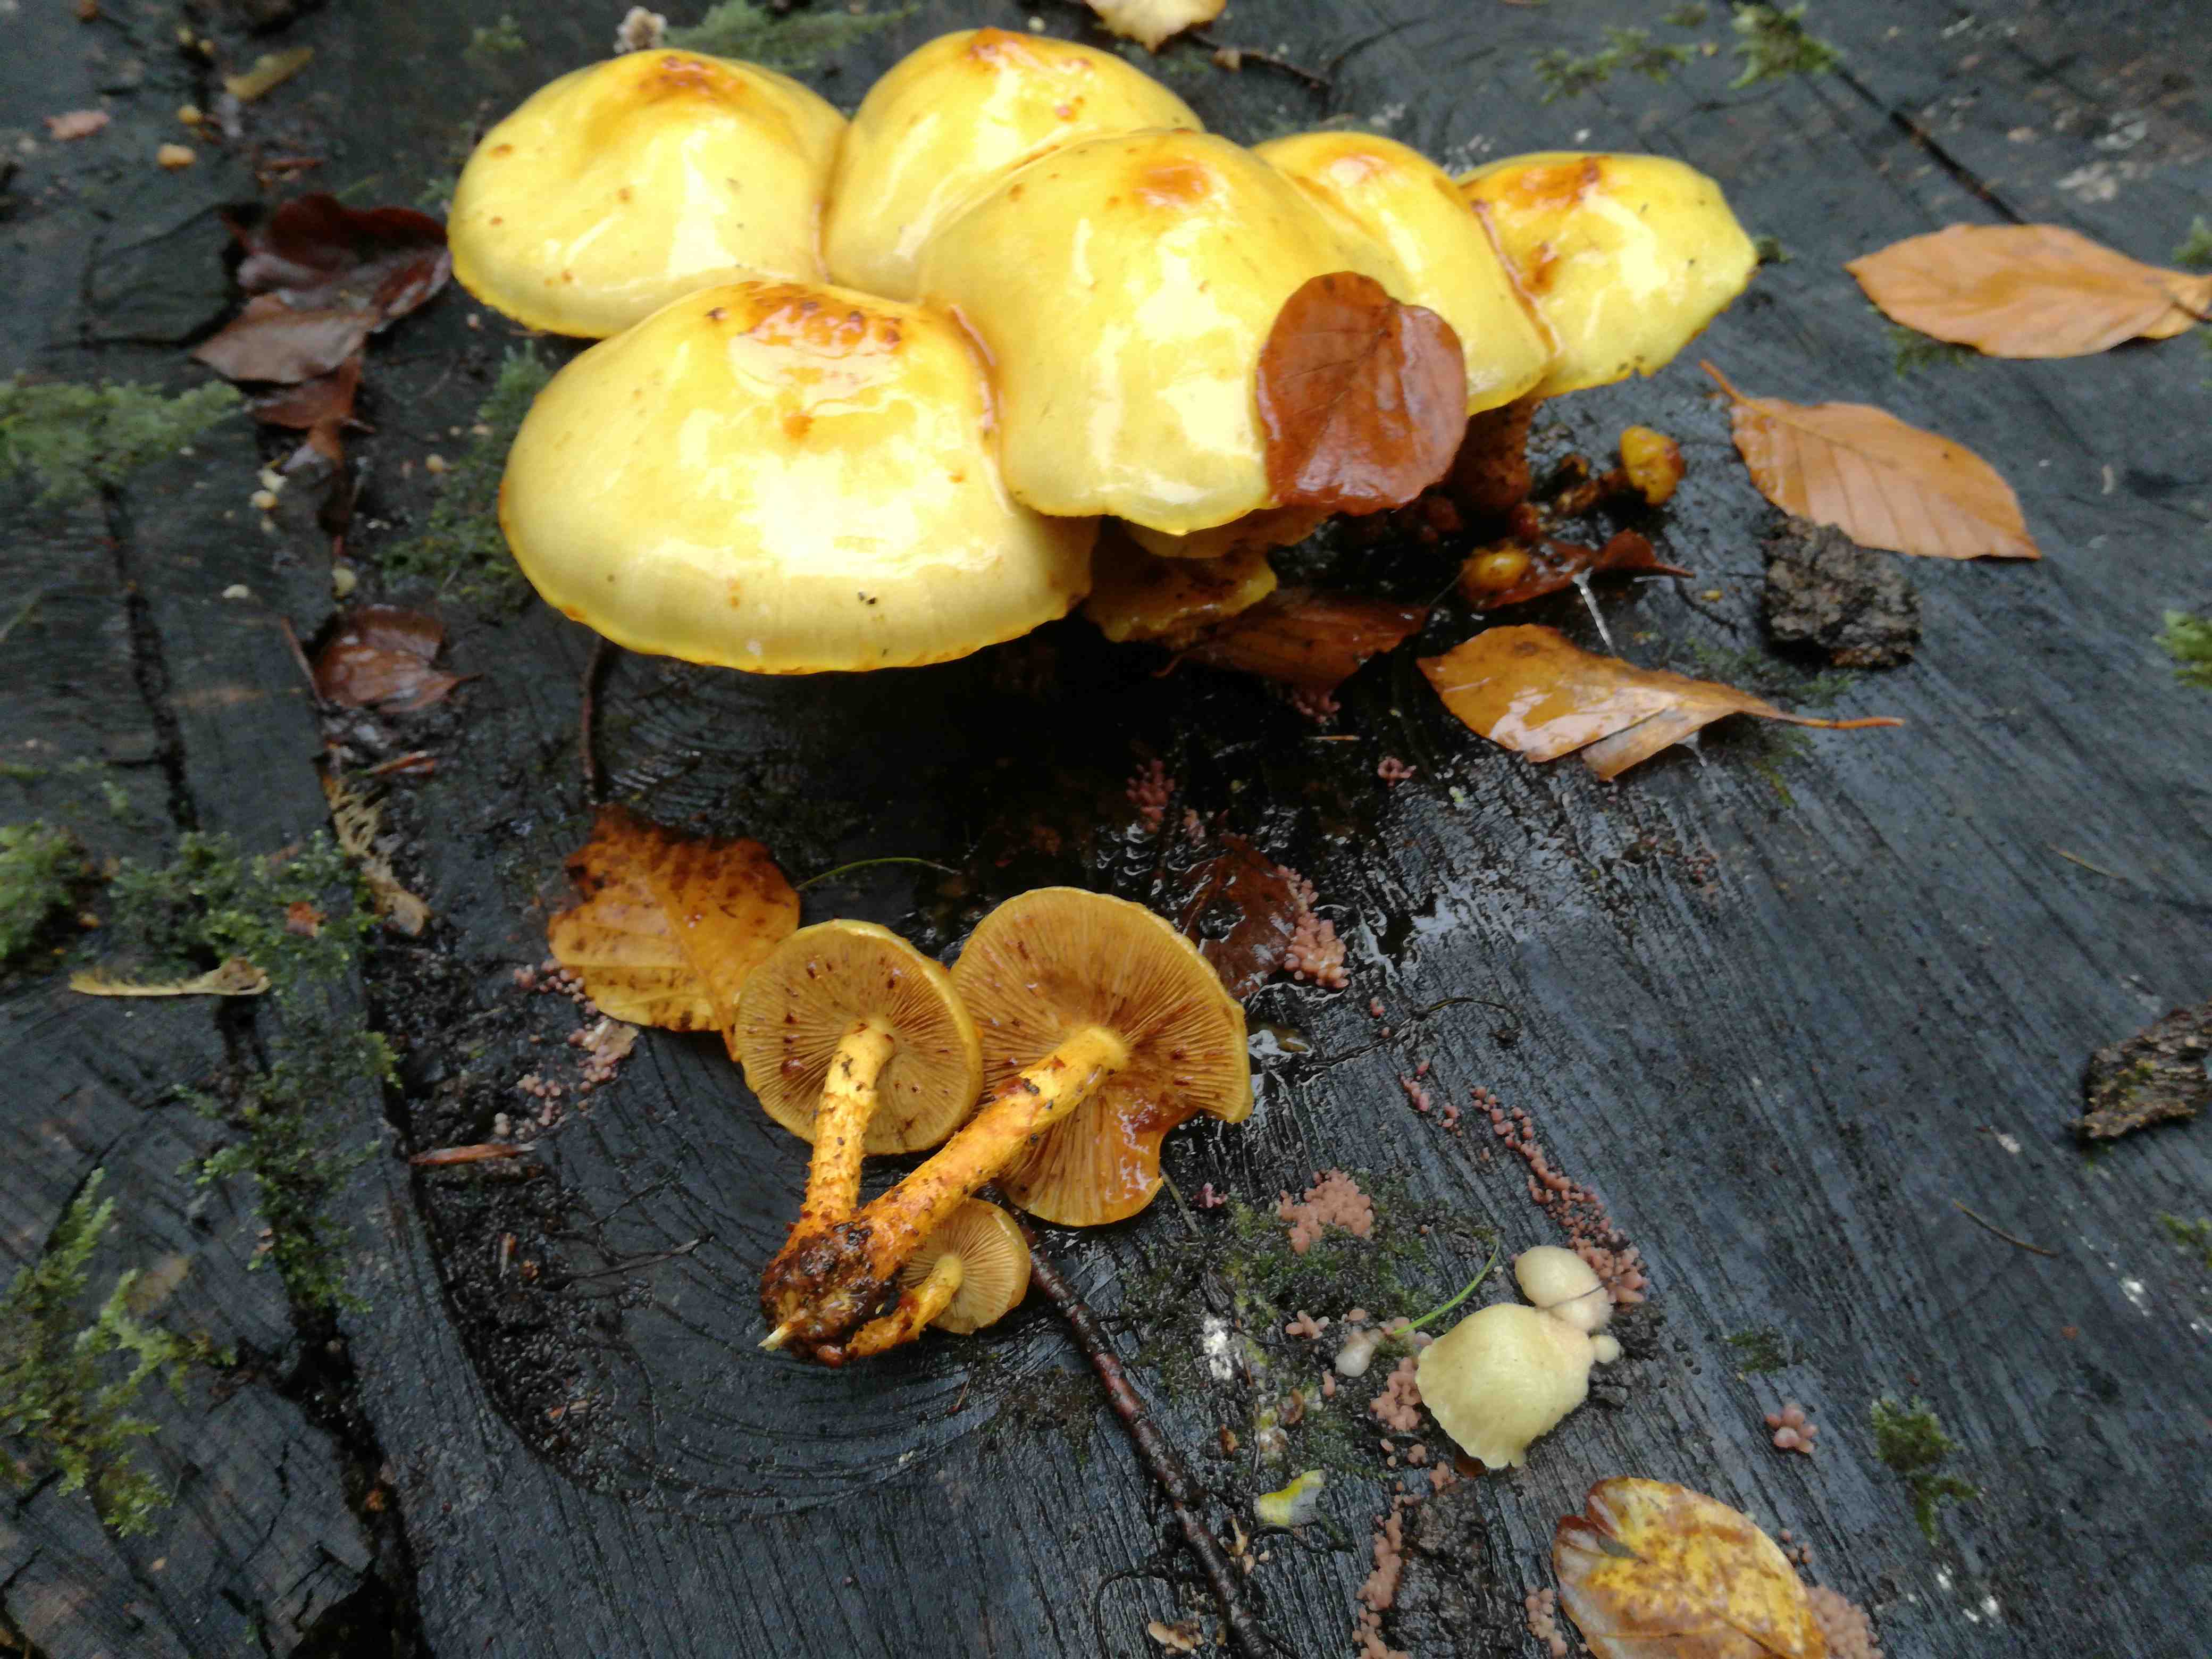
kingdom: Fungi
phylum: Basidiomycota
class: Agaricomycetes
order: Agaricales
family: Strophariaceae
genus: Pholiota
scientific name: Pholiota adiposa
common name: højtsiddende skælhat
